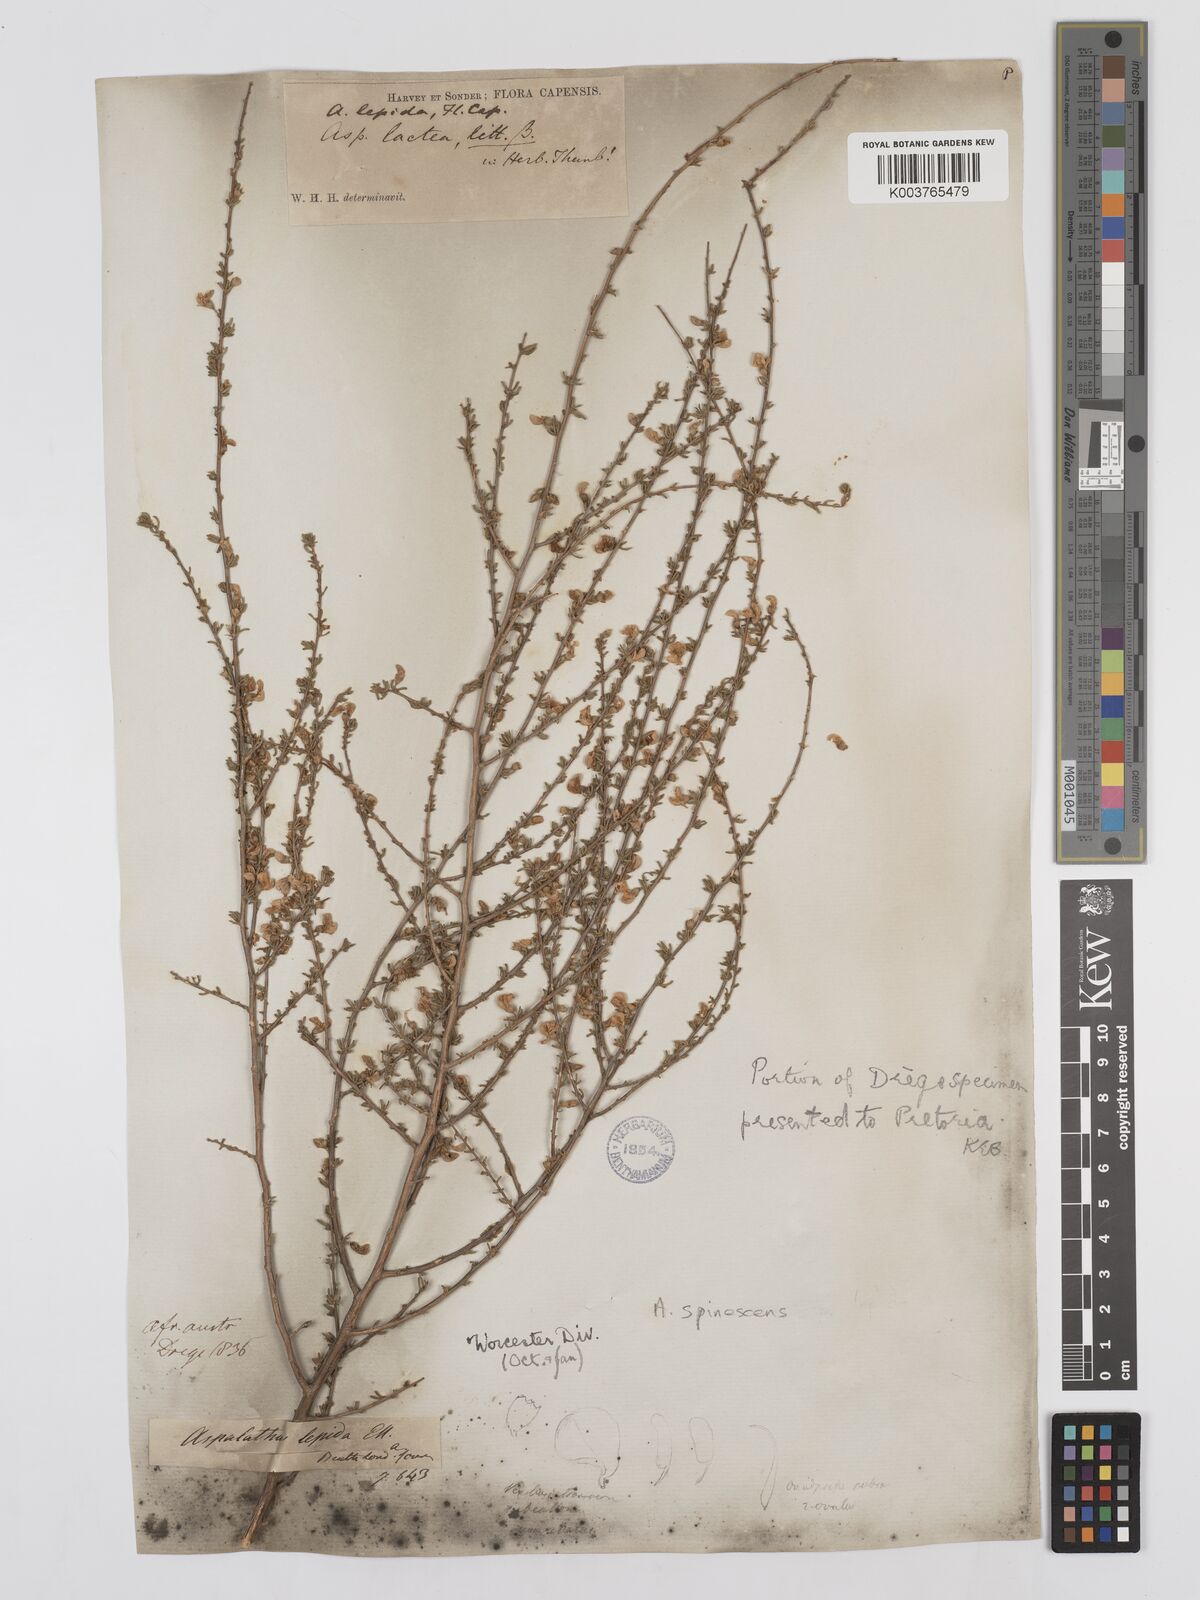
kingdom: Plantae
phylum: Tracheophyta
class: Magnoliopsida
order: Fabales
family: Fabaceae
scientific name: Fabaceae
